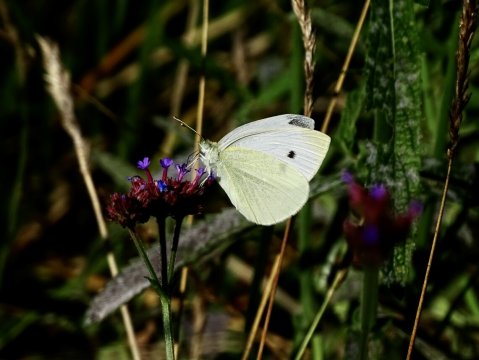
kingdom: Animalia
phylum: Arthropoda
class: Insecta
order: Lepidoptera
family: Pieridae
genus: Pieris
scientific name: Pieris rapae
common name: Cabbage White
